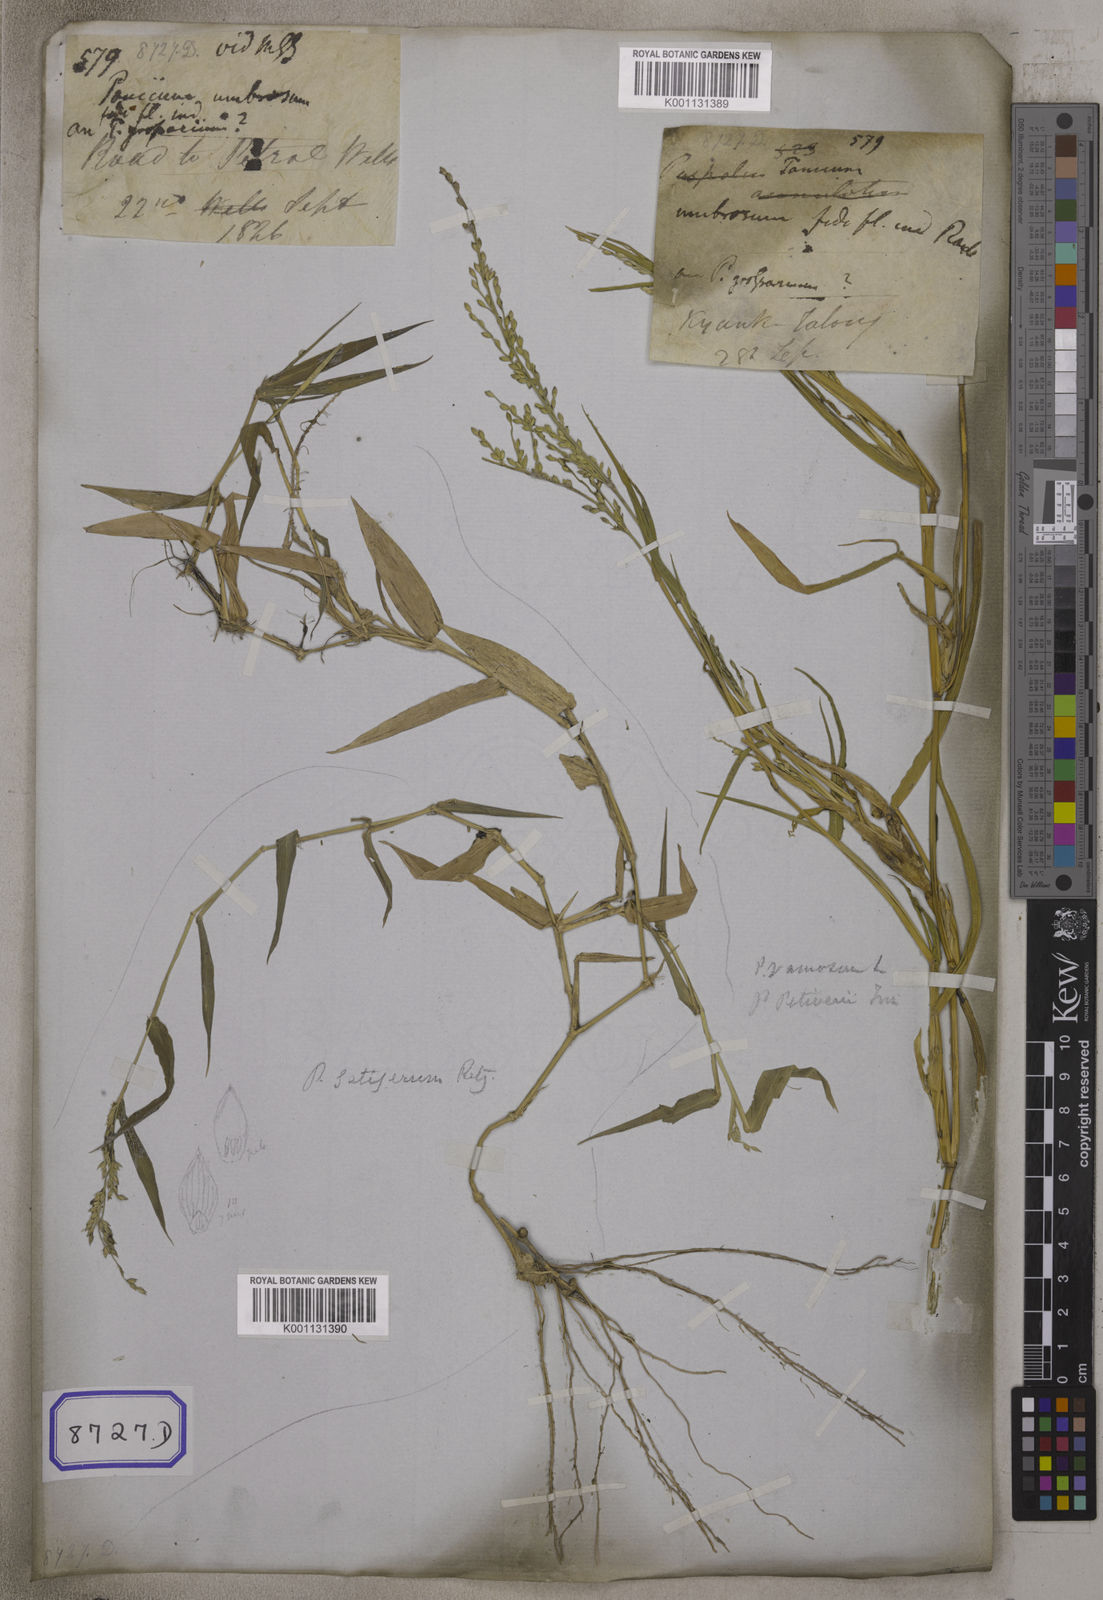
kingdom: Plantae
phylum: Tracheophyta
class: Liliopsida
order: Poales
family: Poaceae
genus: Panicum
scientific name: Panicum
